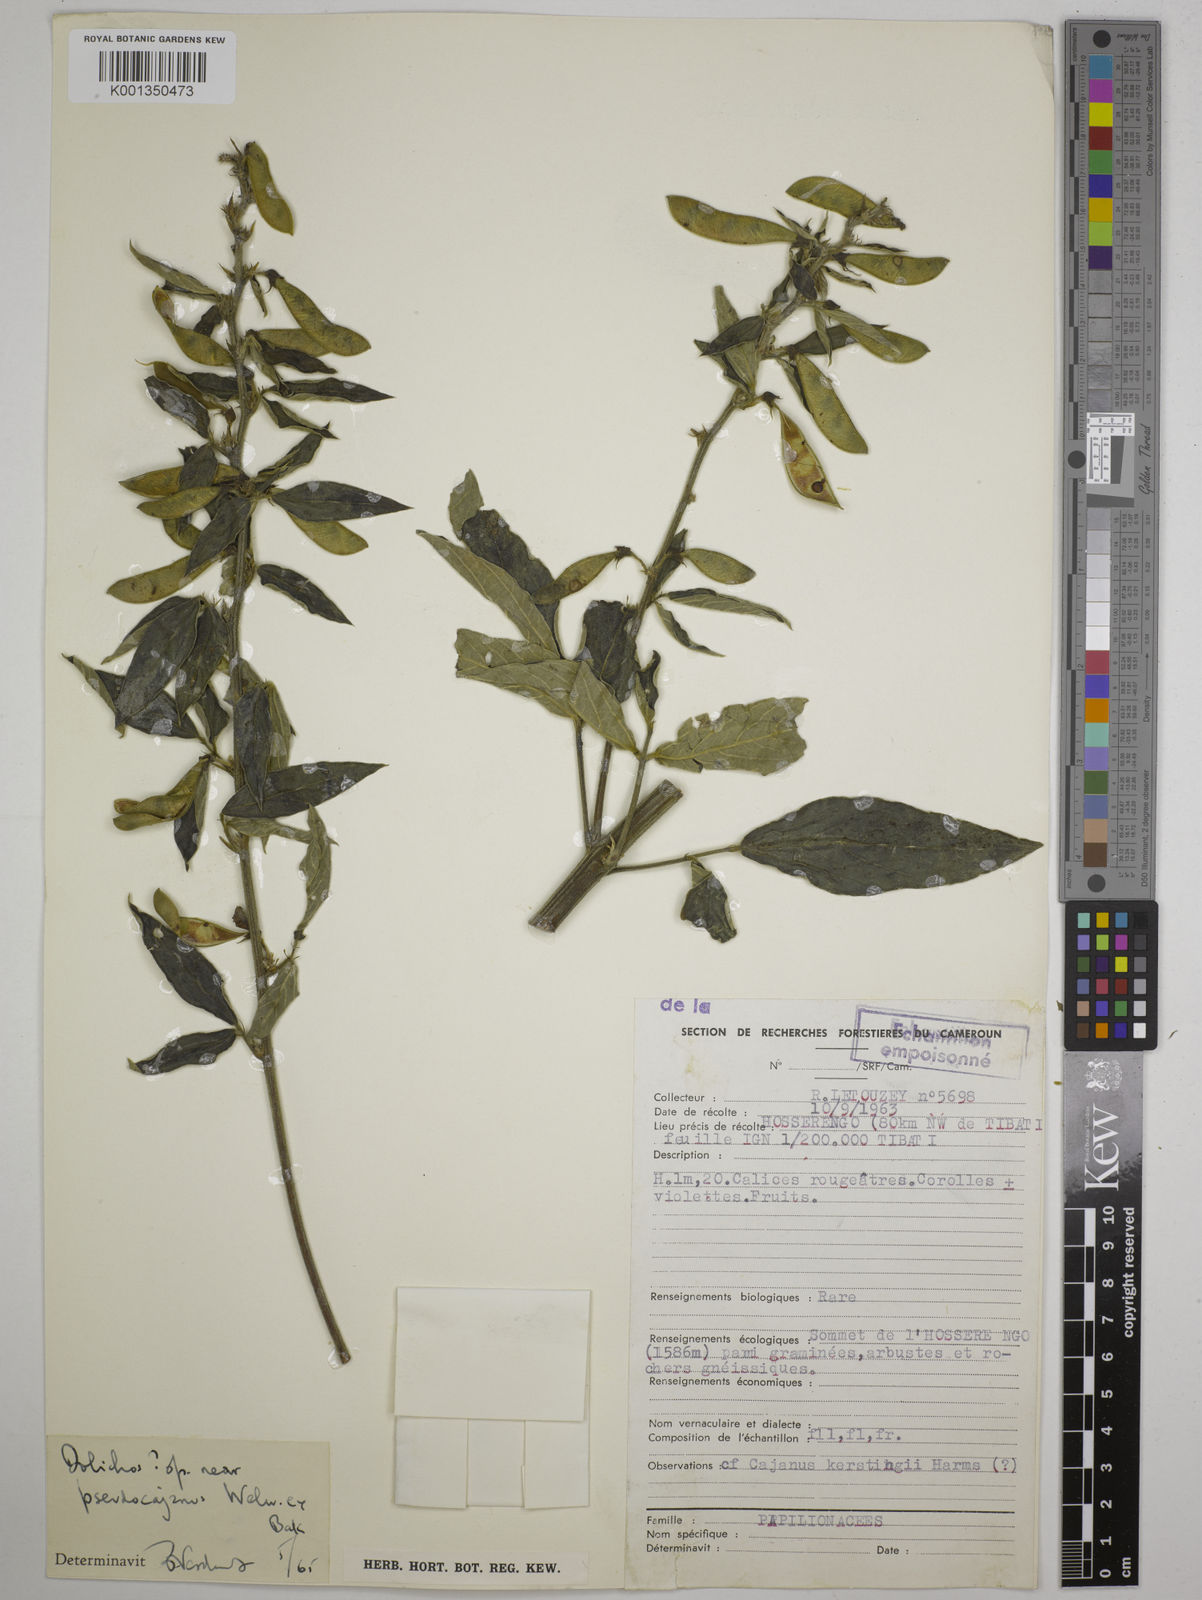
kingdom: Plantae
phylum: Tracheophyta
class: Magnoliopsida
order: Fabales
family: Fabaceae
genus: Dolichos
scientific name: Dolichos
